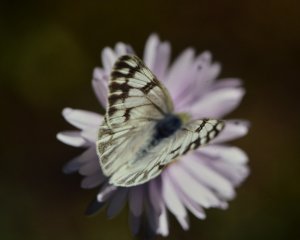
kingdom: Animalia
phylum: Arthropoda
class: Insecta
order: Lepidoptera
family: Pieridae
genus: Pontia
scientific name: Pontia occidentalis
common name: Western White
